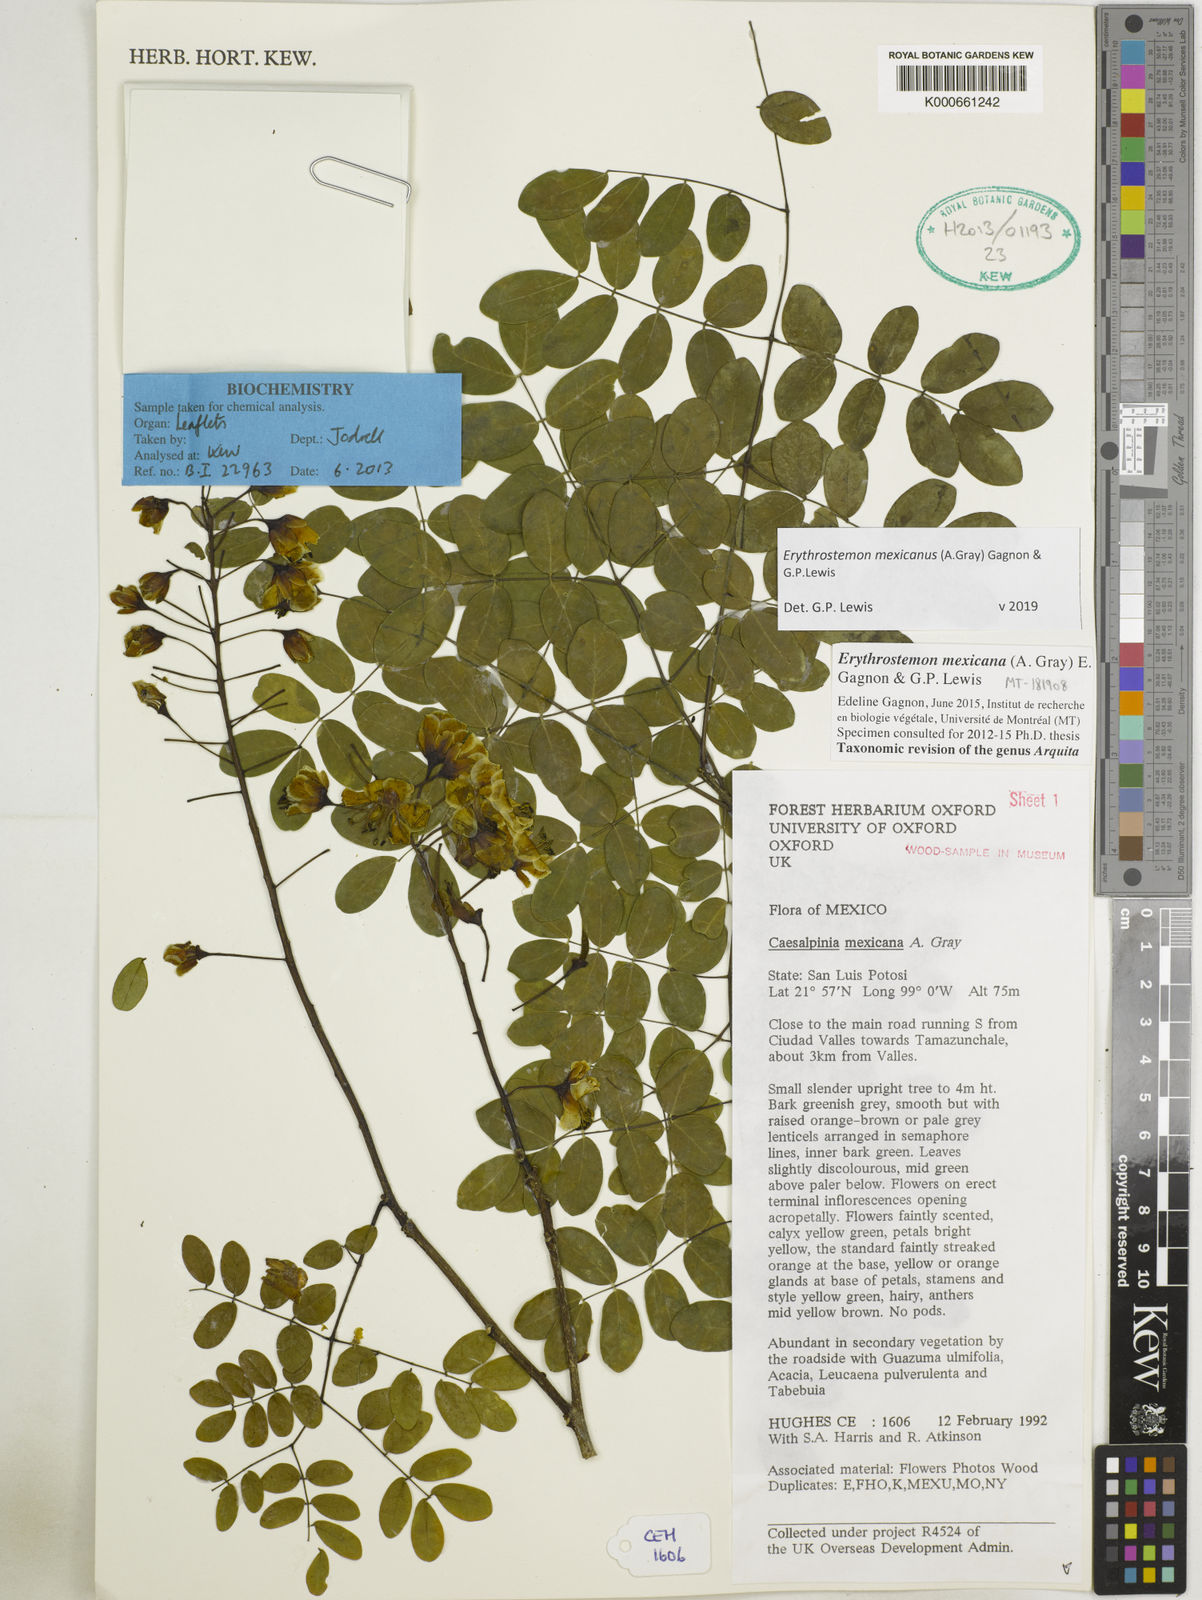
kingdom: Plantae
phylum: Tracheophyta
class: Magnoliopsida
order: Fabales
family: Fabaceae
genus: Erythrostemon
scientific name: Erythrostemon mexicanus
